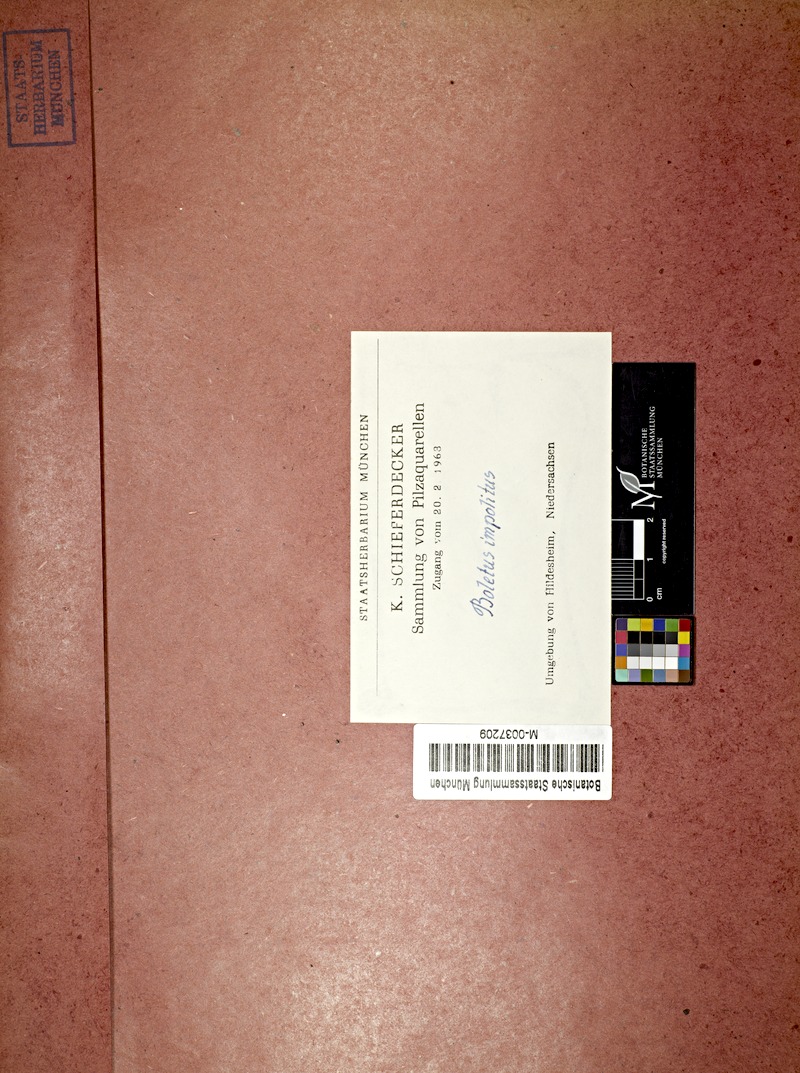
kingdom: Fungi
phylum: Basidiomycota
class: Agaricomycetes
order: Boletales
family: Boletaceae
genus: Hemileccinum
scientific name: Hemileccinum impolitum
